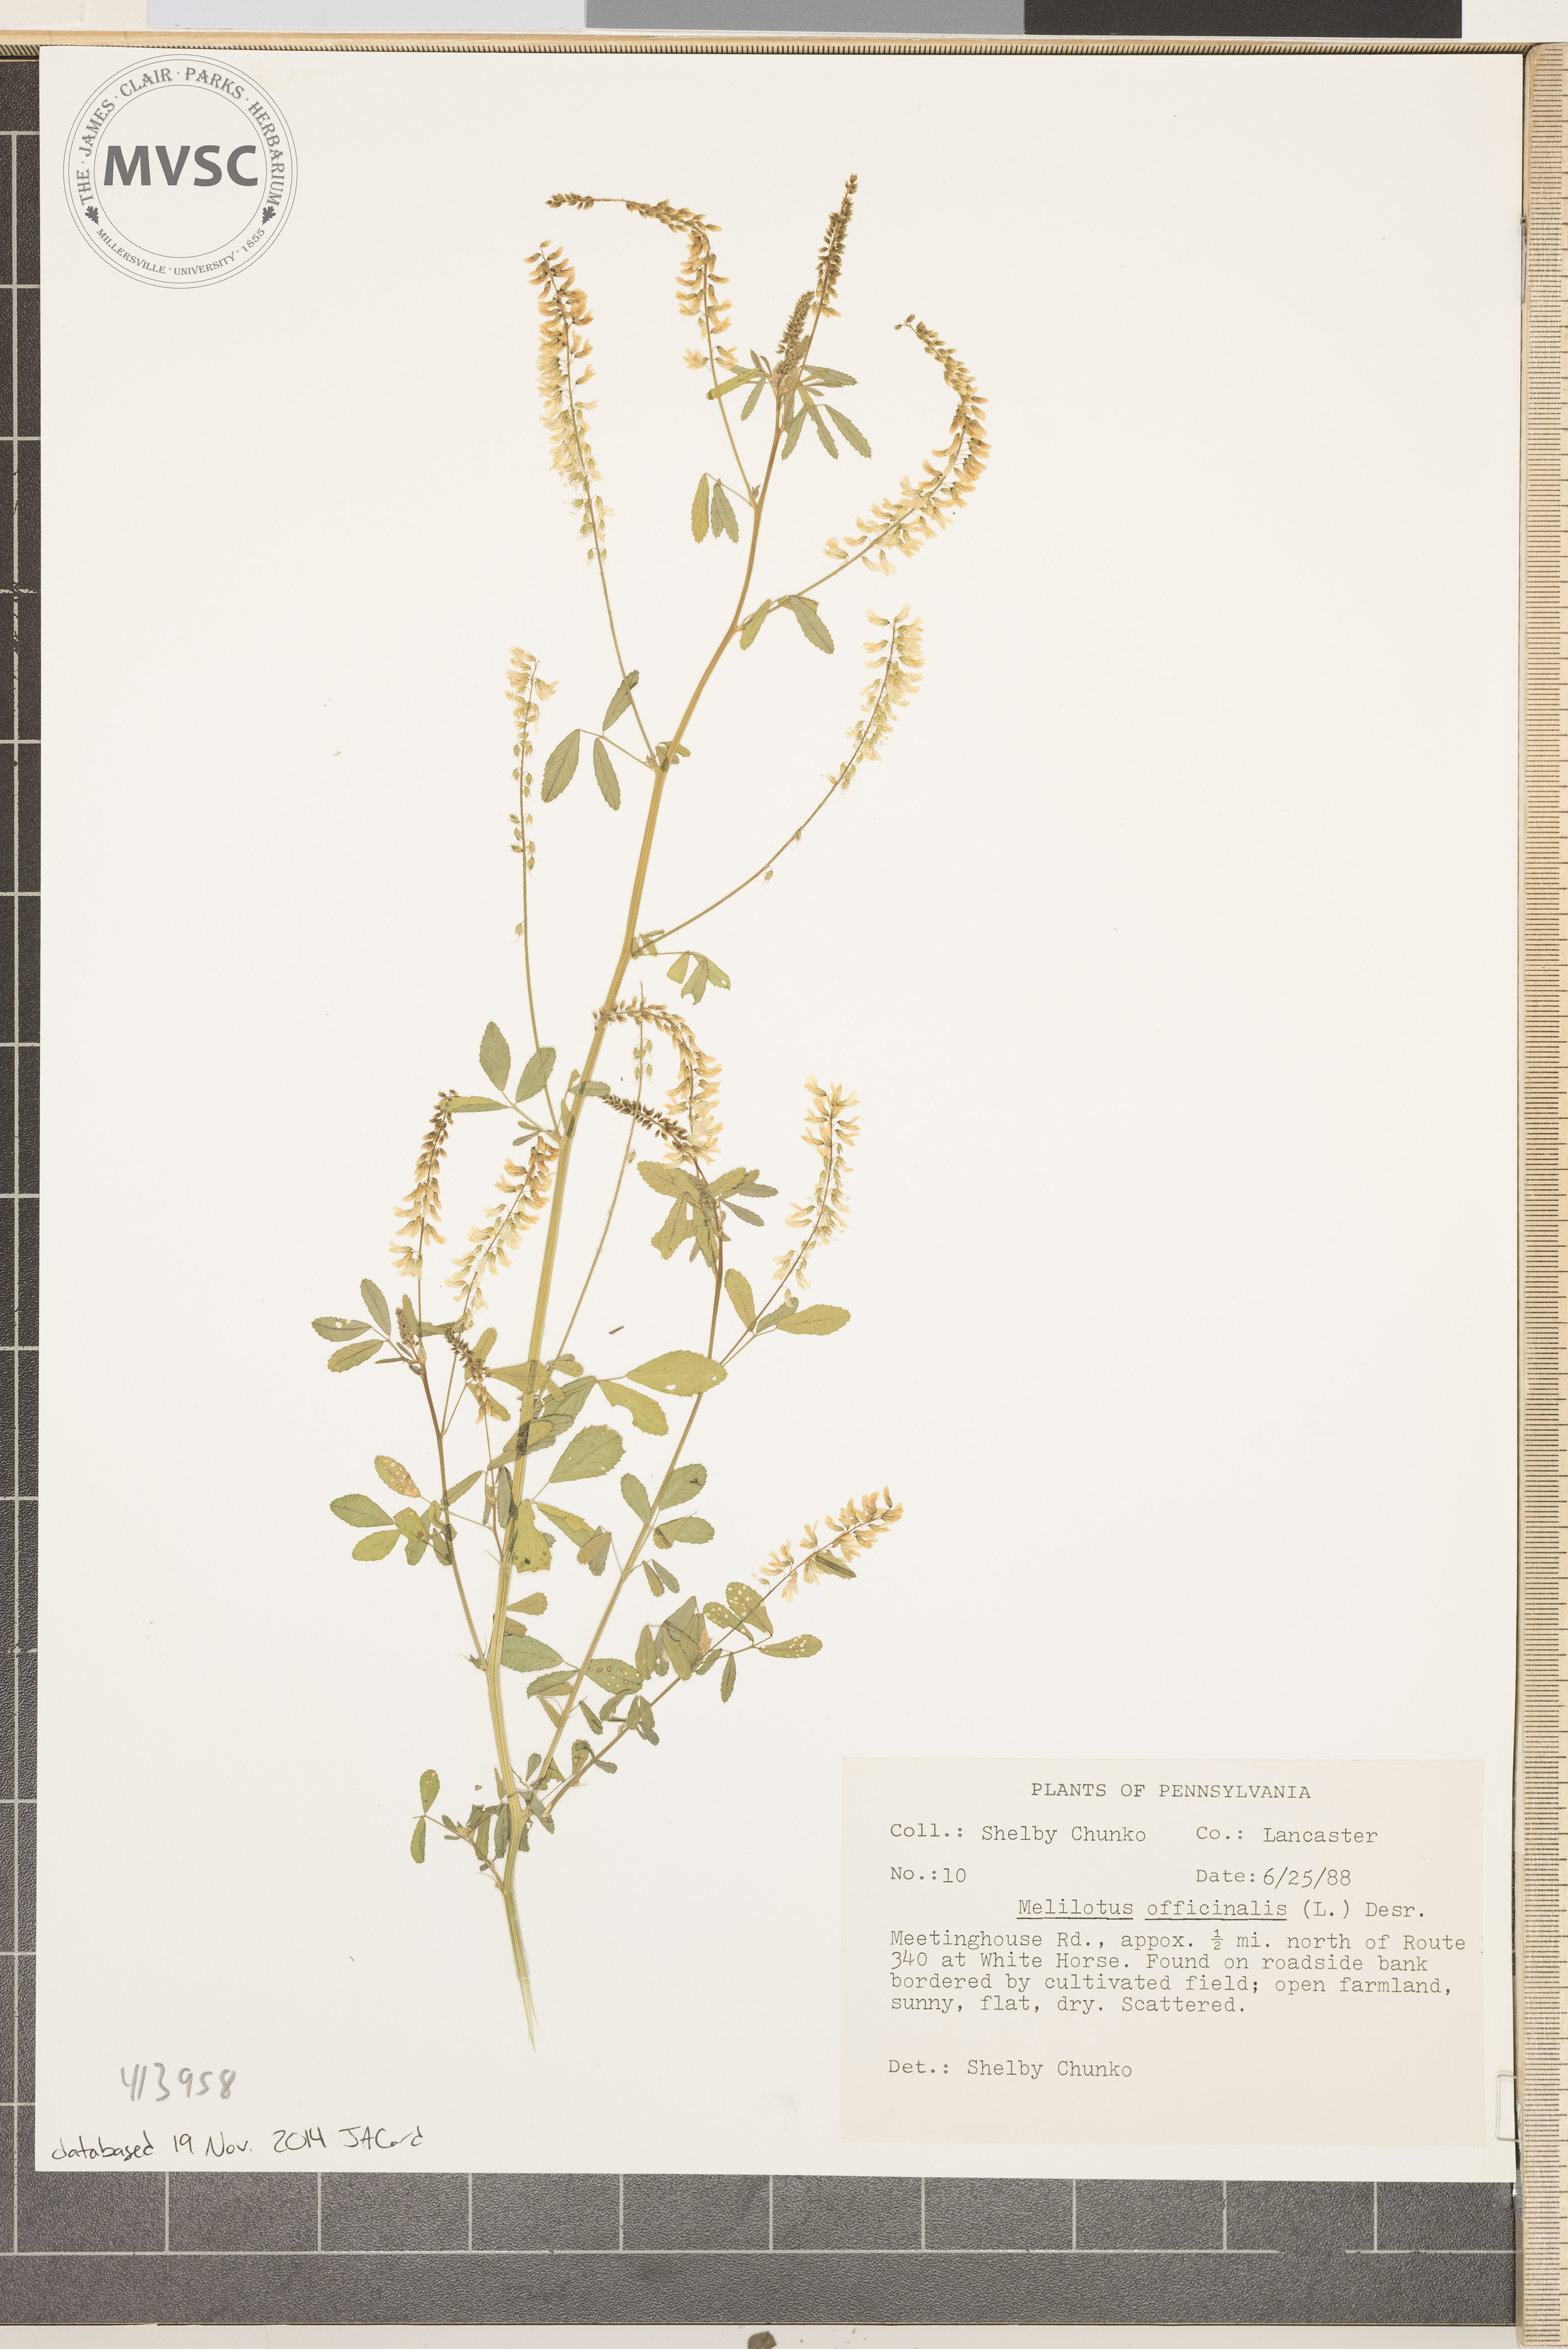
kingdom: Plantae
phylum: Tracheophyta
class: Magnoliopsida
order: Fabales
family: Fabaceae
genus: Melilotus
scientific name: Melilotus officinalis
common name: Sweetclover
